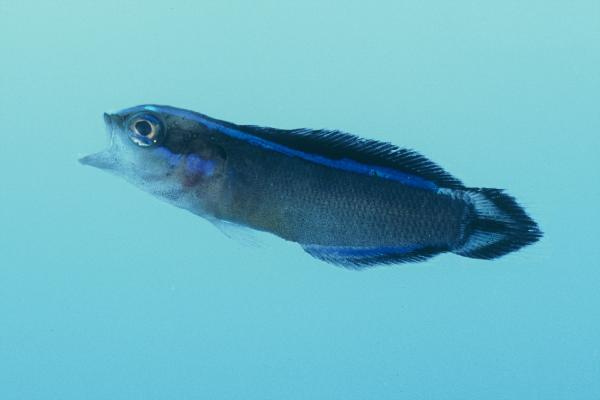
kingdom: Animalia
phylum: Chordata
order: Perciformes
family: Pseudochromidae
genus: Pseudochromis
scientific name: Pseudochromis dutoiti
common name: Dutoiti
